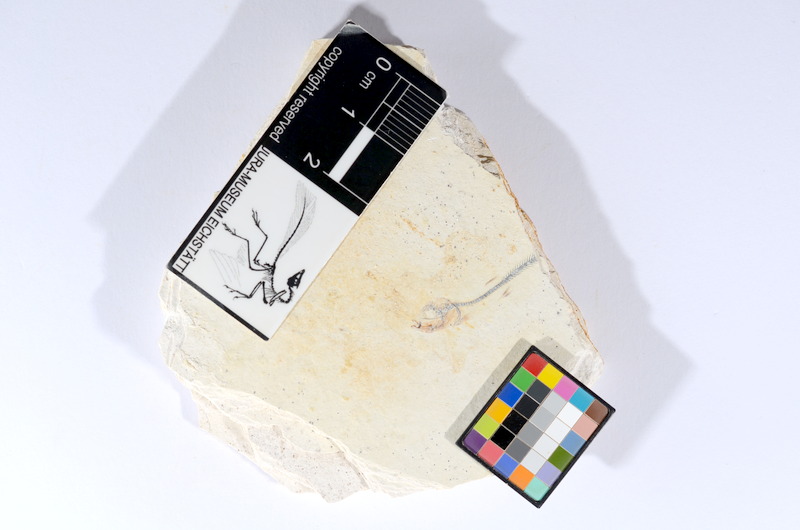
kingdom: Animalia
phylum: Chordata
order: Salmoniformes
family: Orthogonikleithridae
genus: Orthogonikleithrus
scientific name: Orthogonikleithrus hoelli
